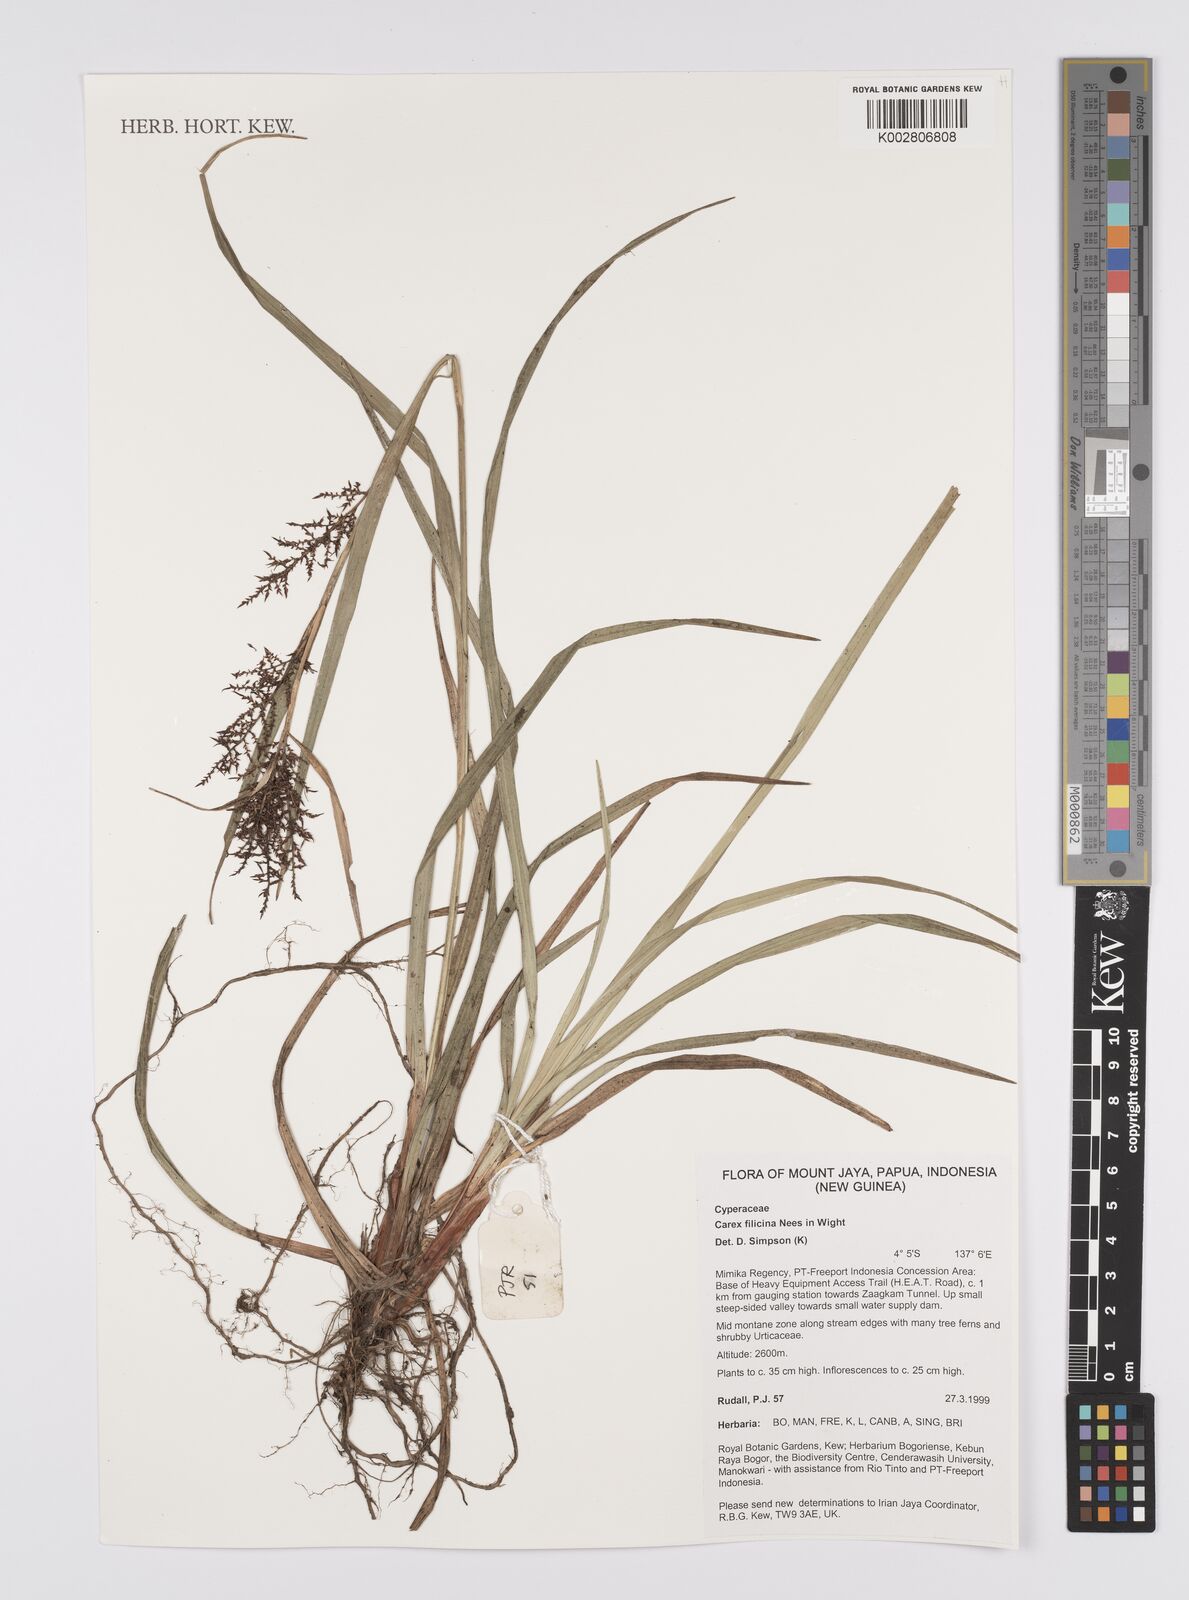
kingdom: Plantae
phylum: Tracheophyta
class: Liliopsida
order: Poales
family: Cyperaceae
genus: Carex
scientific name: Carex filicina
